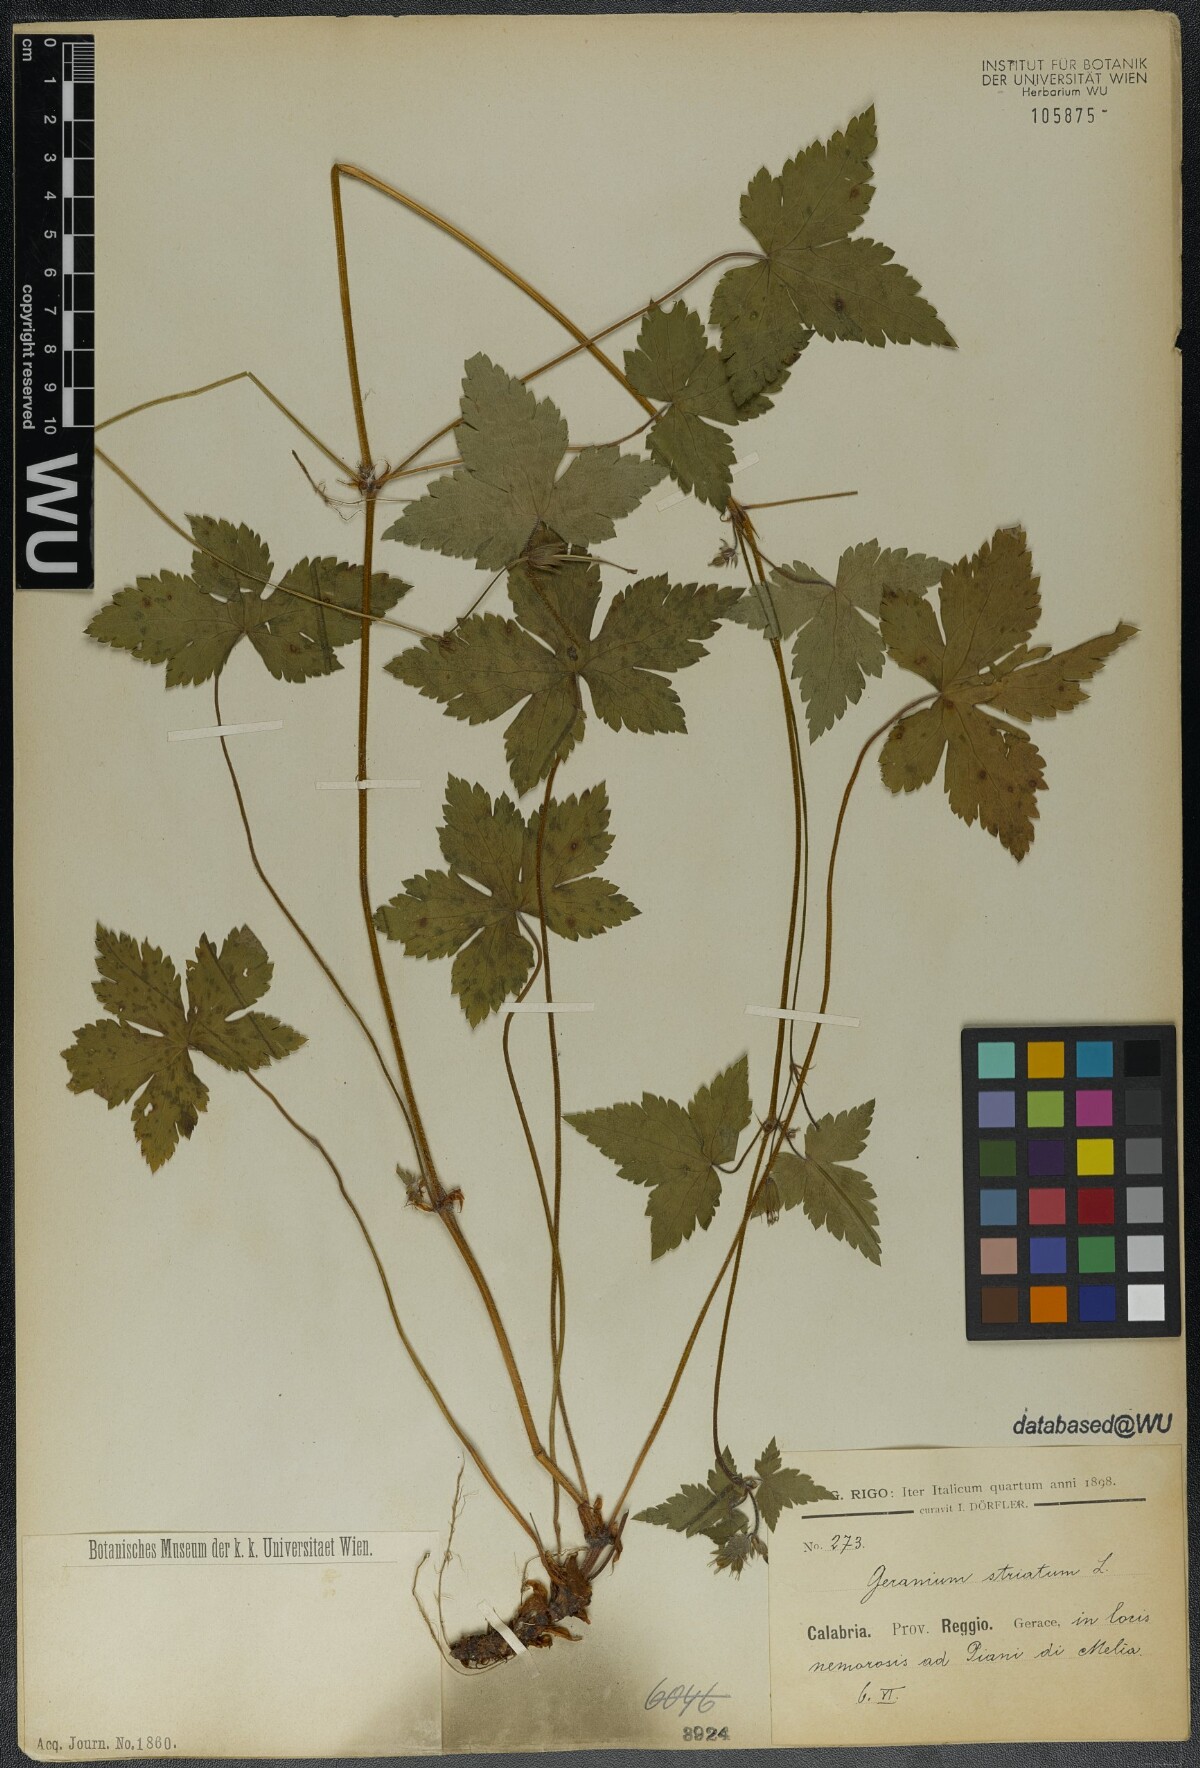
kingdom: Plantae
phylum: Tracheophyta
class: Magnoliopsida
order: Geraniales
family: Geraniaceae
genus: Geranium
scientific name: Geranium versicolor
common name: Pencilled crane's-bill
